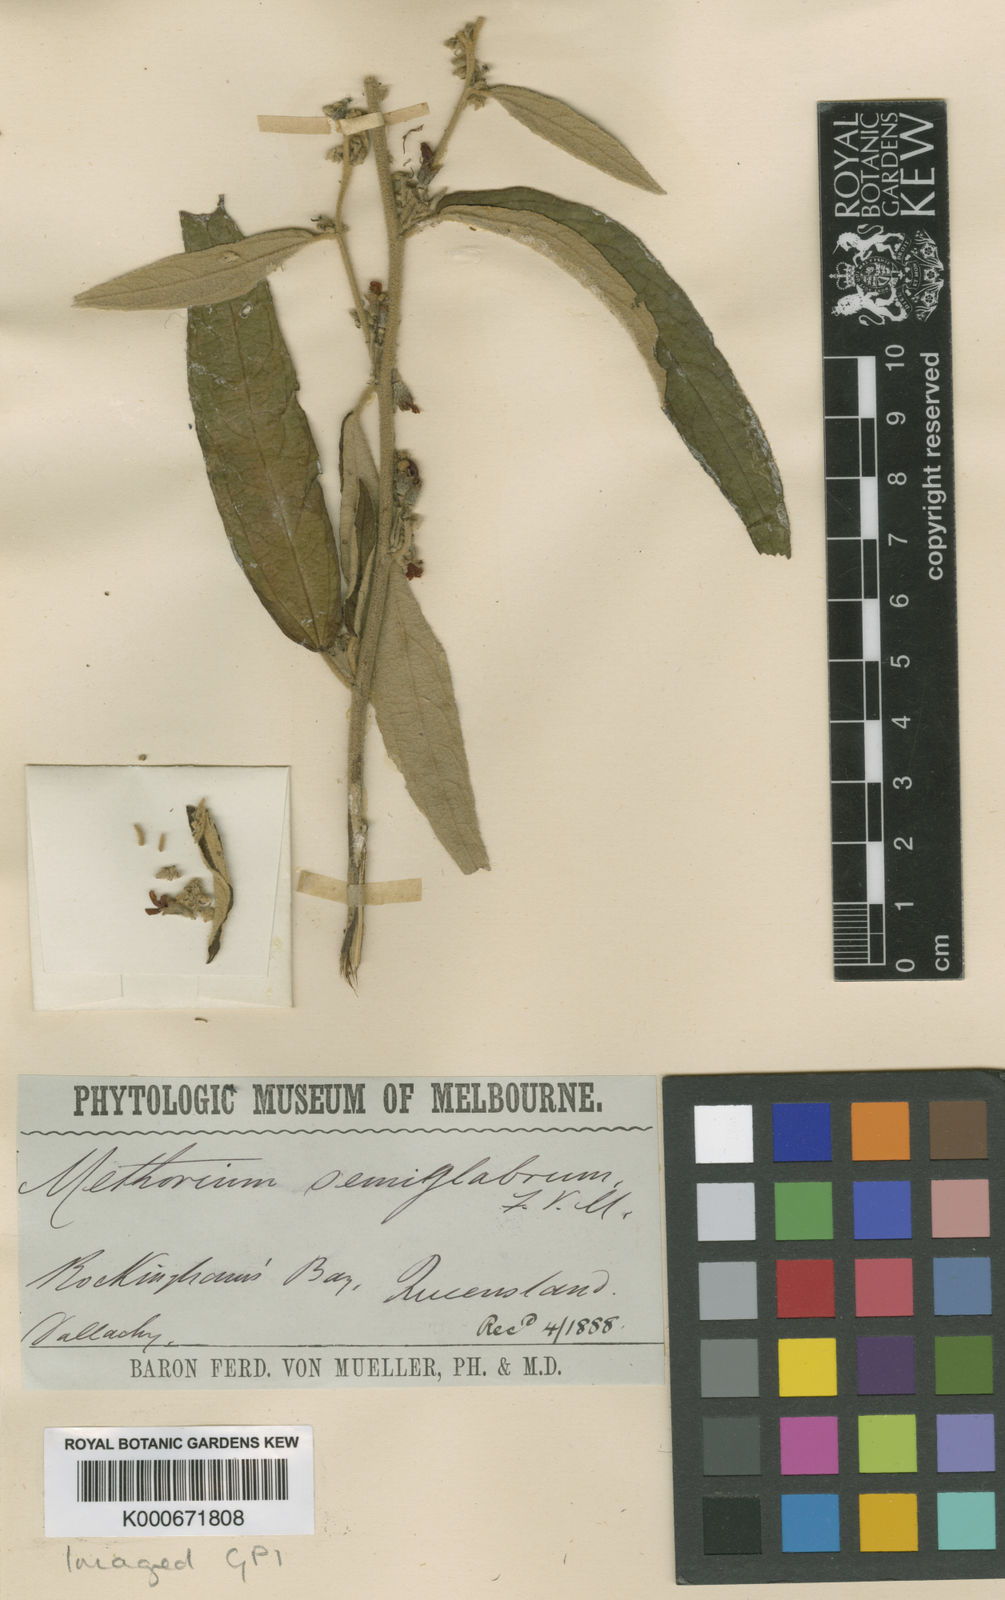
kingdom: Plantae
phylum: Tracheophyta
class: Magnoliopsida
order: Malvales
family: Malvaceae
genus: Helicteres
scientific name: Helicteres
